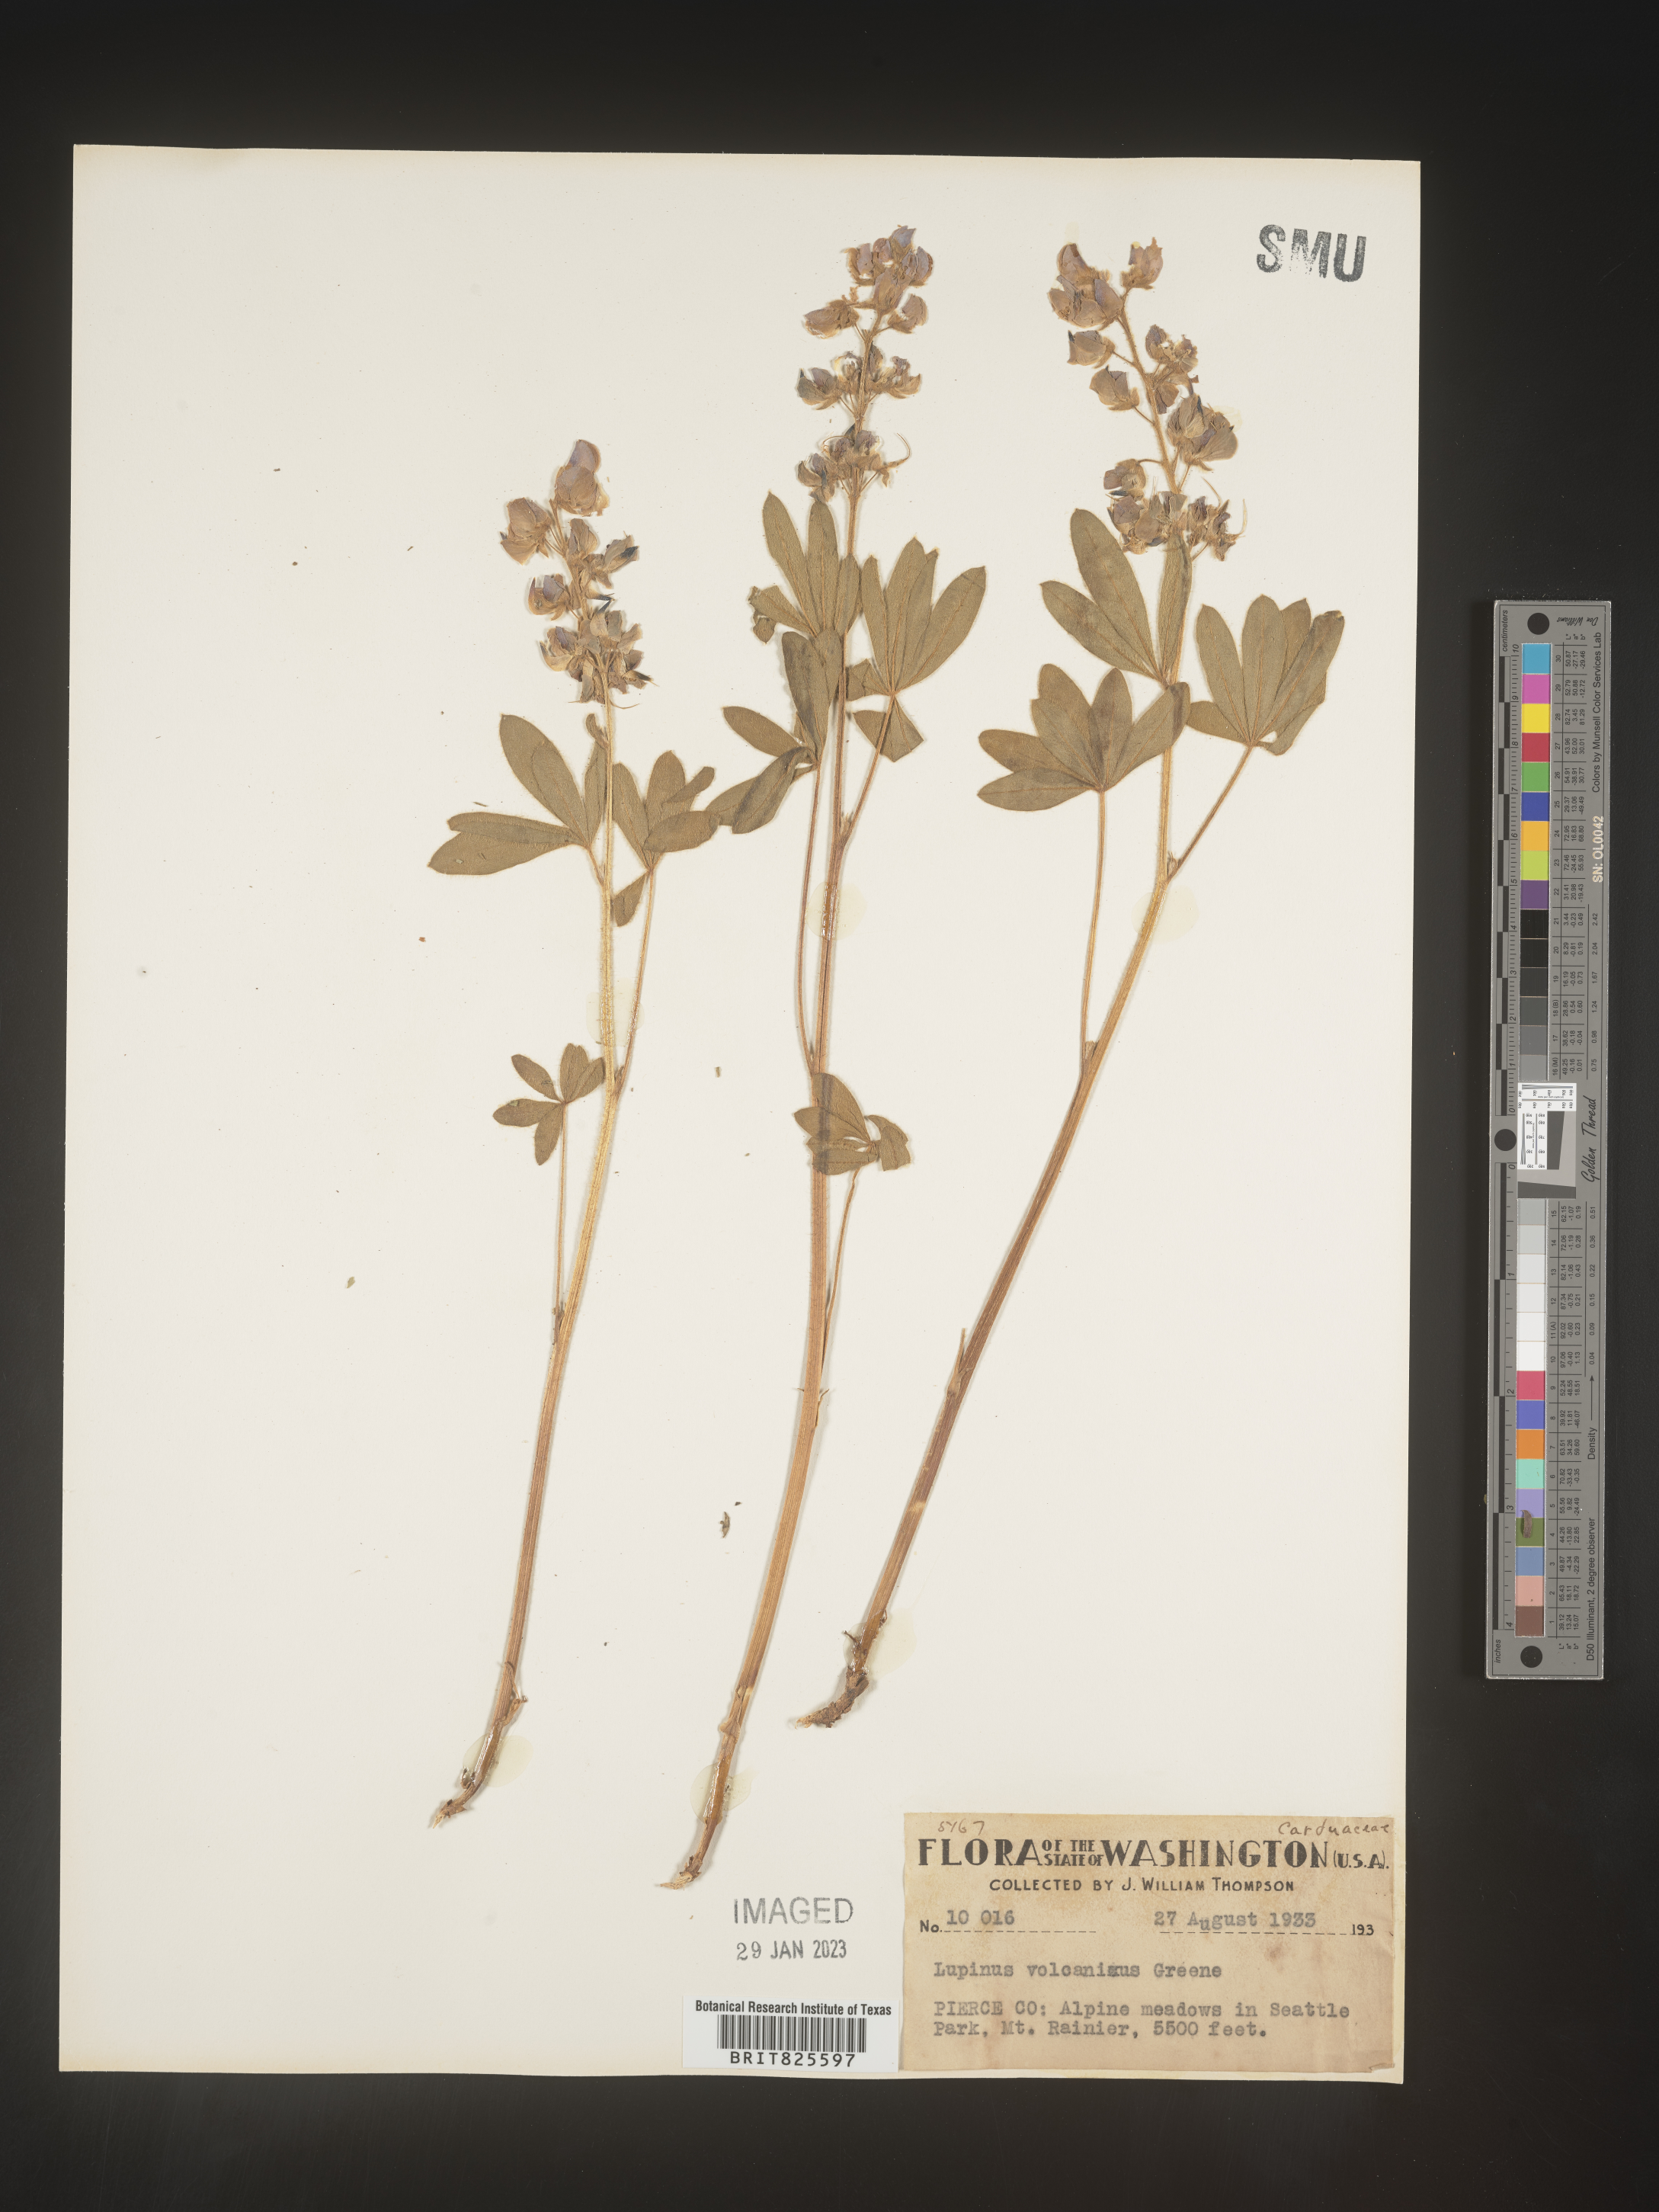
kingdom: Plantae
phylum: Tracheophyta
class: Magnoliopsida
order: Fabales
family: Fabaceae
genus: Lupinus
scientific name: Lupinus arcticus
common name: Arctic lupine
